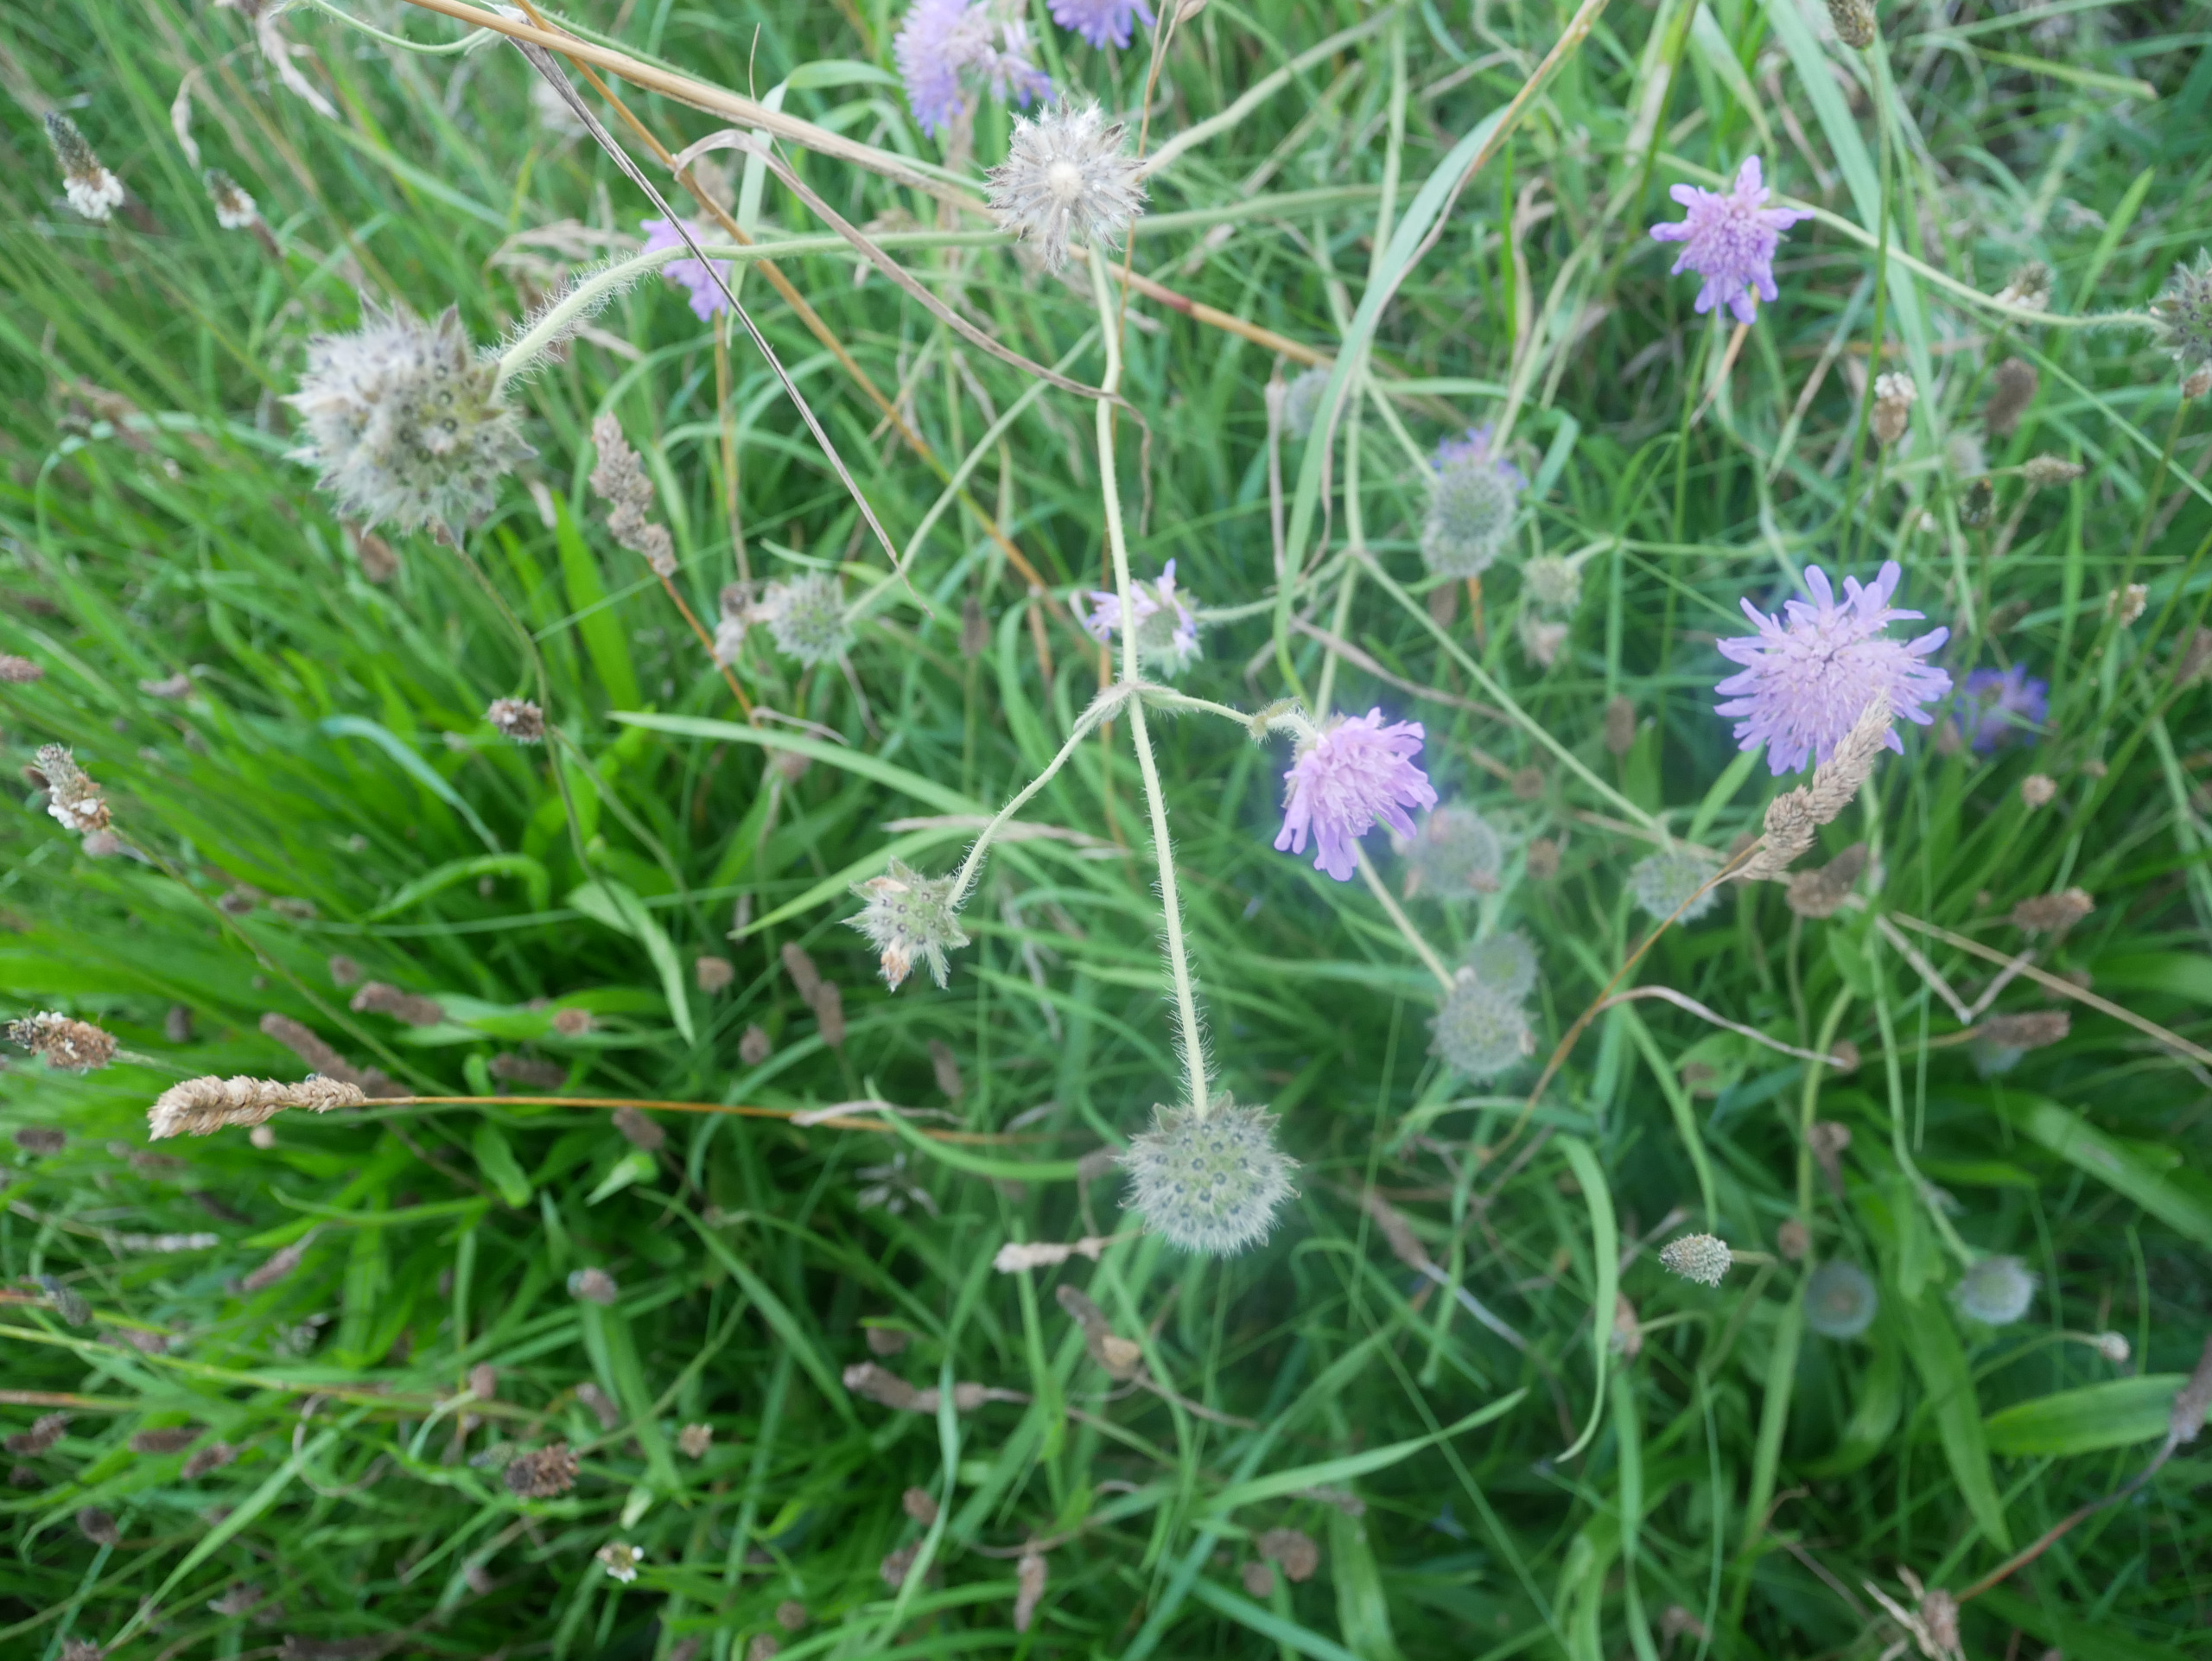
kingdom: Plantae
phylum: Tracheophyta
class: Magnoliopsida
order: Dipsacales
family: Caprifoliaceae
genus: Knautia
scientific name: Knautia arvensis
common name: Blåhat
